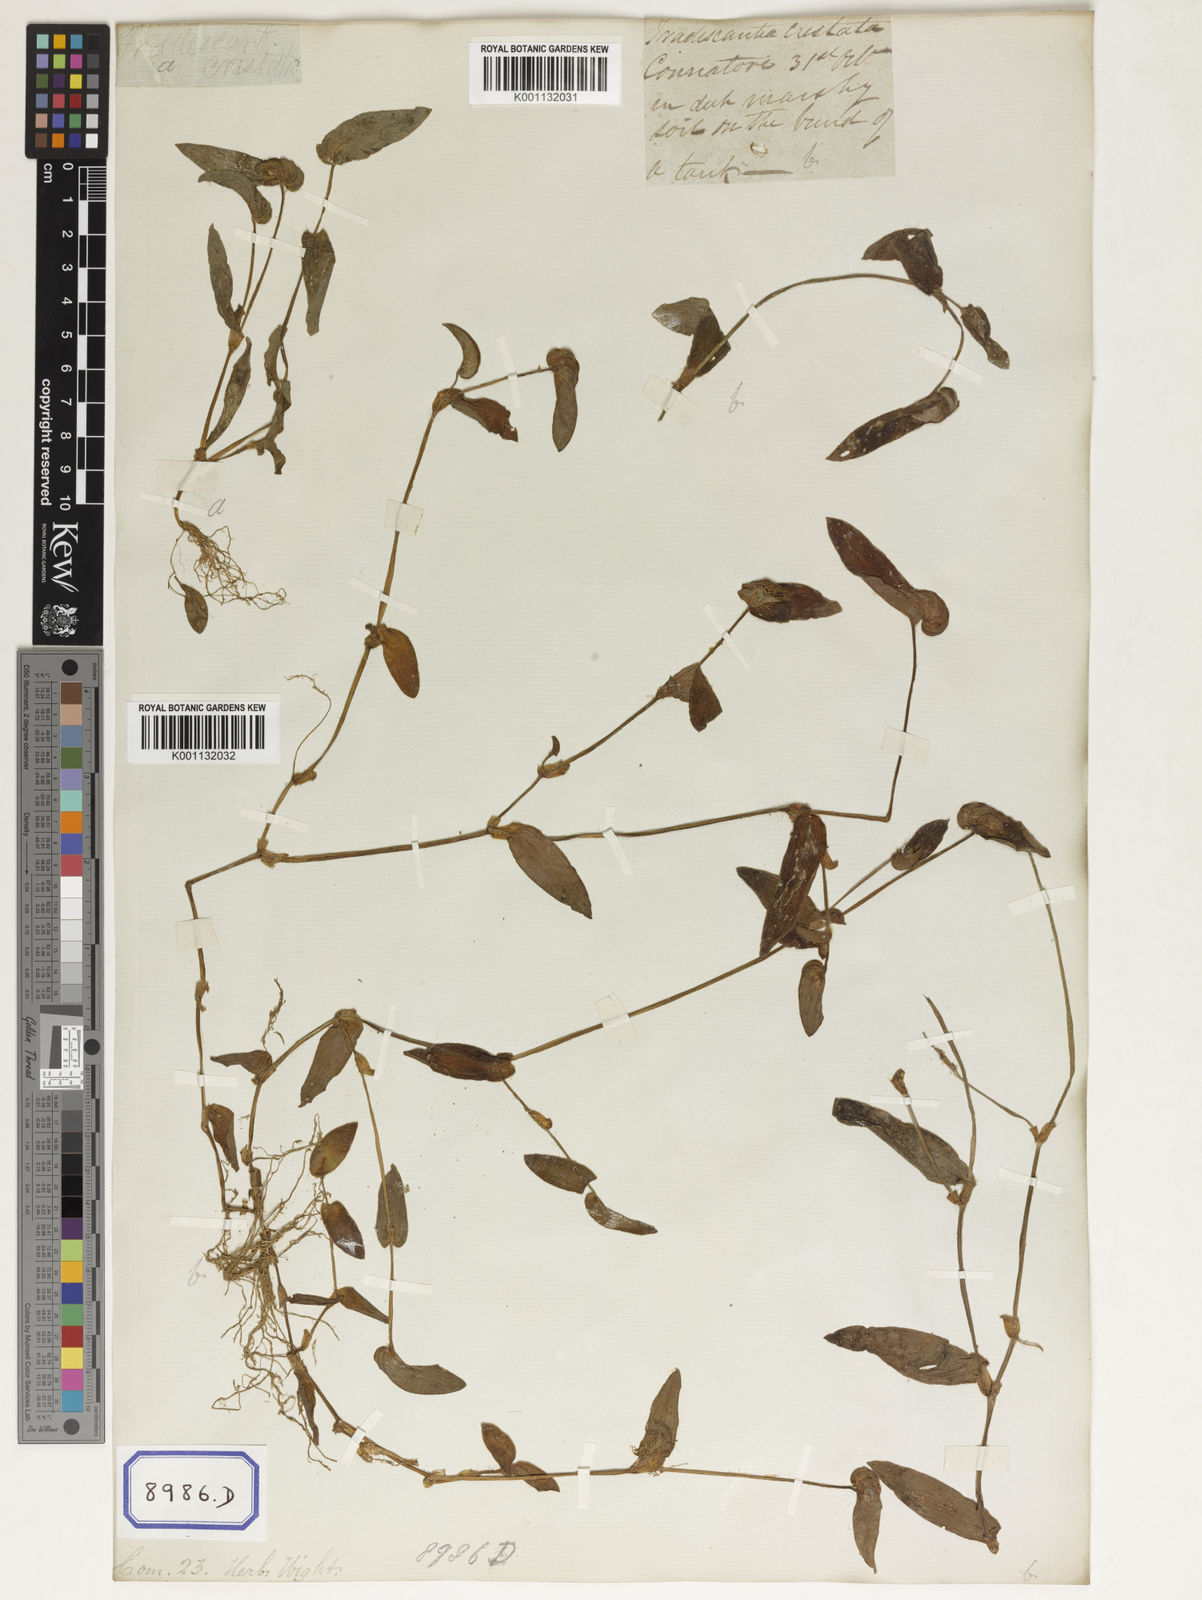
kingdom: Plantae
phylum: Tracheophyta
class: Liliopsida
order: Commelinales
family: Commelinaceae
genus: Cyanotis
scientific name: Cyanotis cristata
